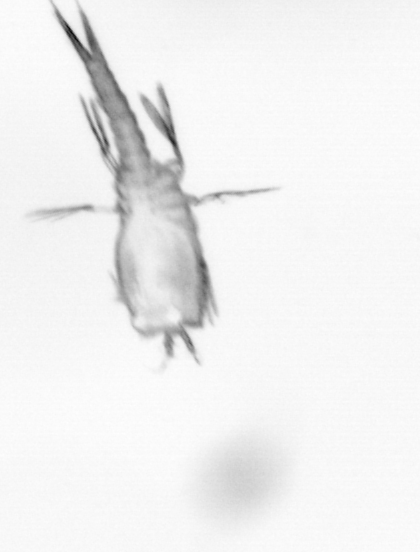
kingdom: Animalia
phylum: Arthropoda
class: Copepoda
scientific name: Copepoda
